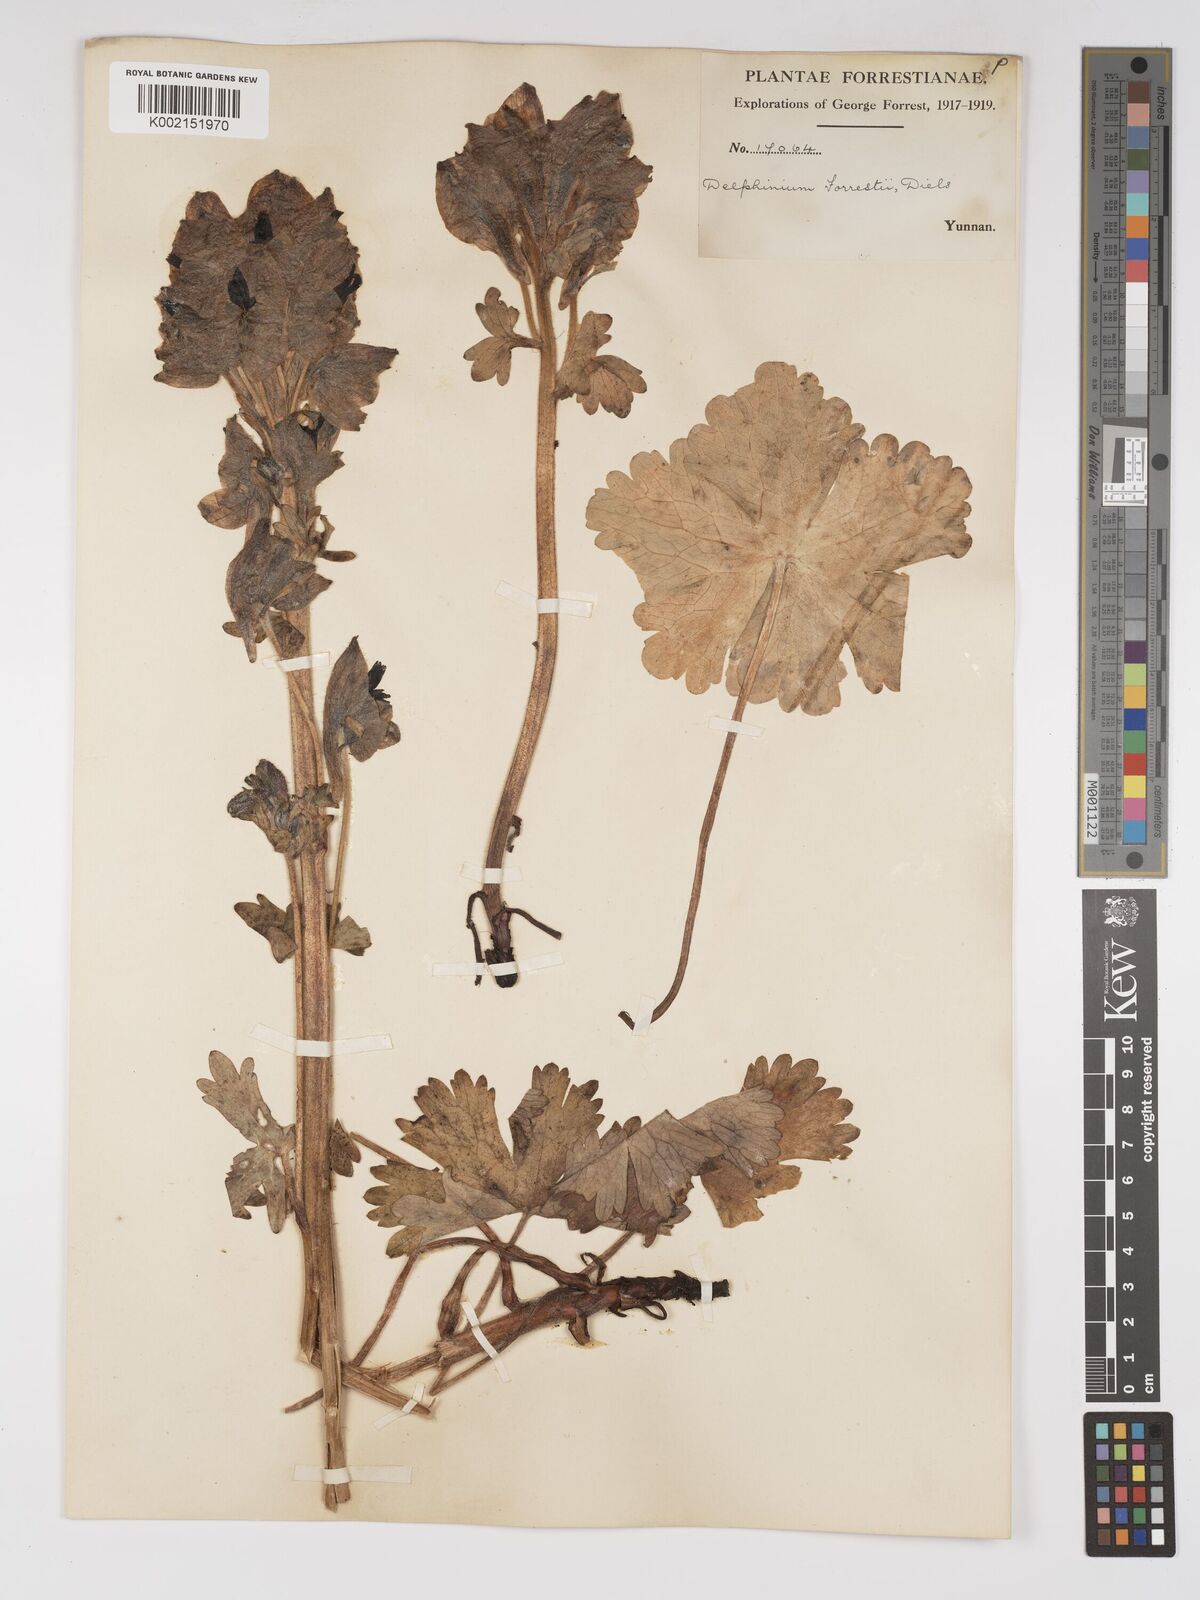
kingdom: Plantae
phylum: Tracheophyta
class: Magnoliopsida
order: Ranunculales
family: Ranunculaceae
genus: Delphinium
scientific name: Delphinium forrestii
